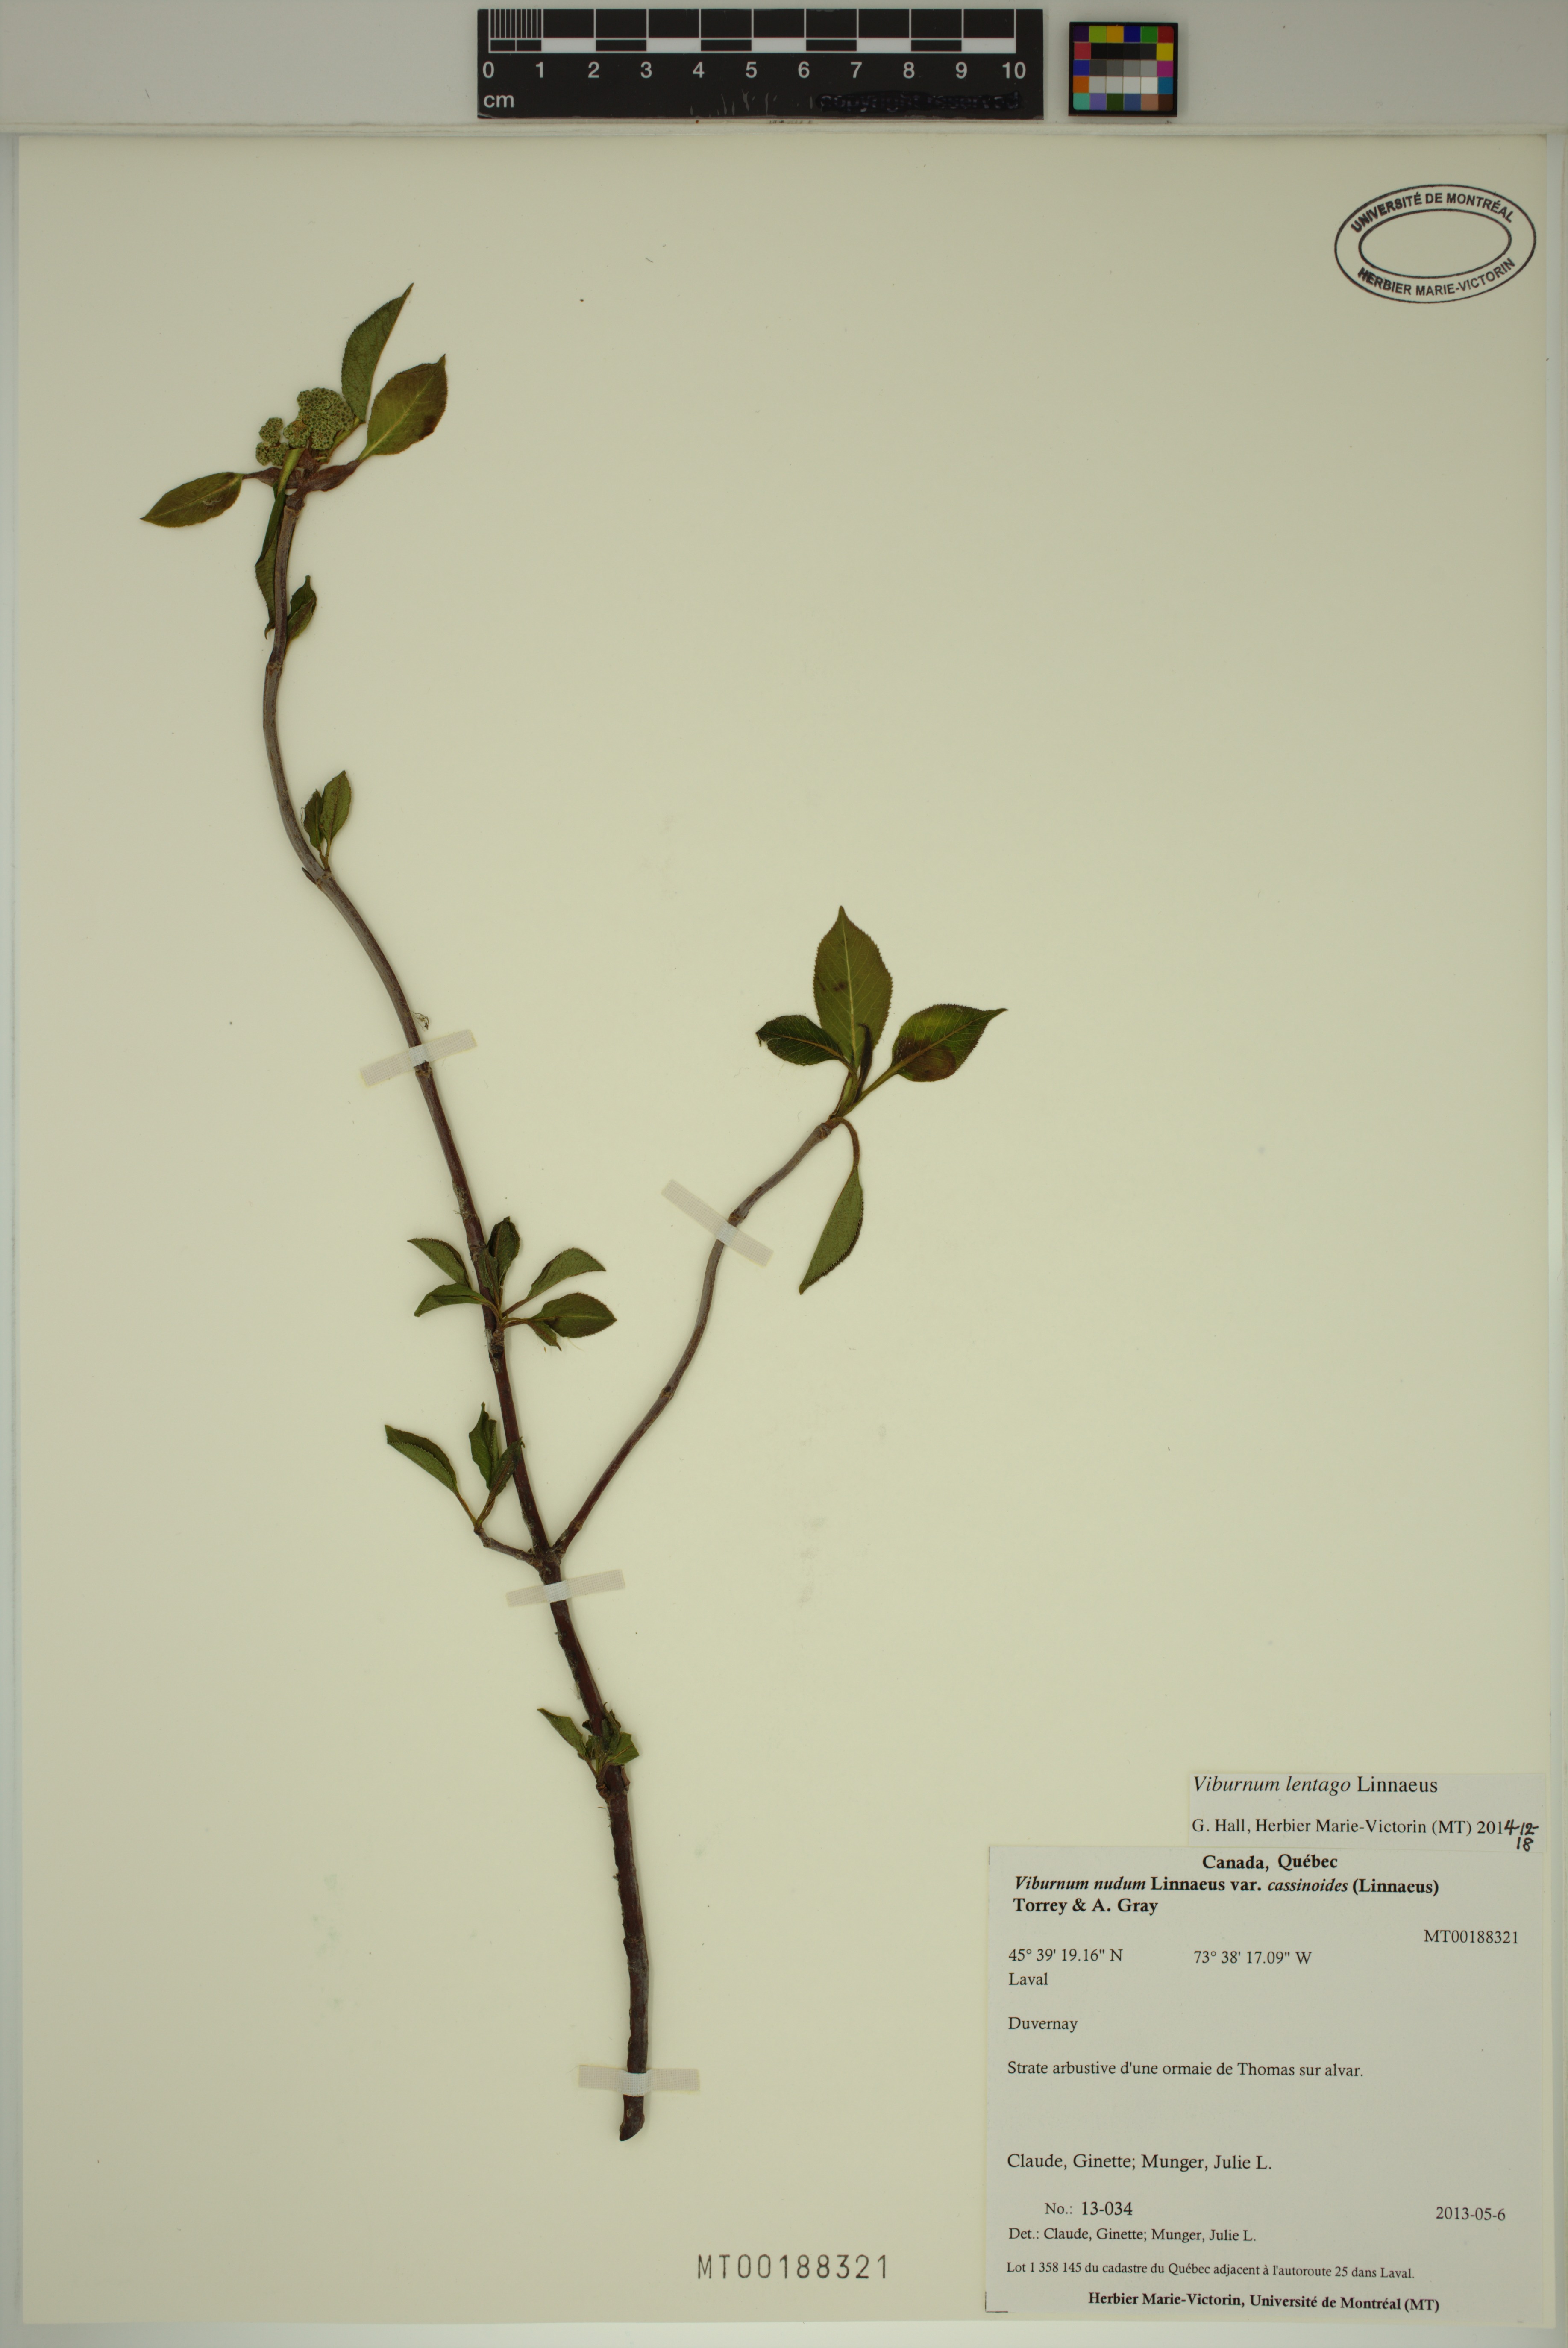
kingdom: Plantae
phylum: Tracheophyta
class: Magnoliopsida
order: Dipsacales
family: Viburnaceae
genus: Viburnum
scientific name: Viburnum lentago
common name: Black haw
